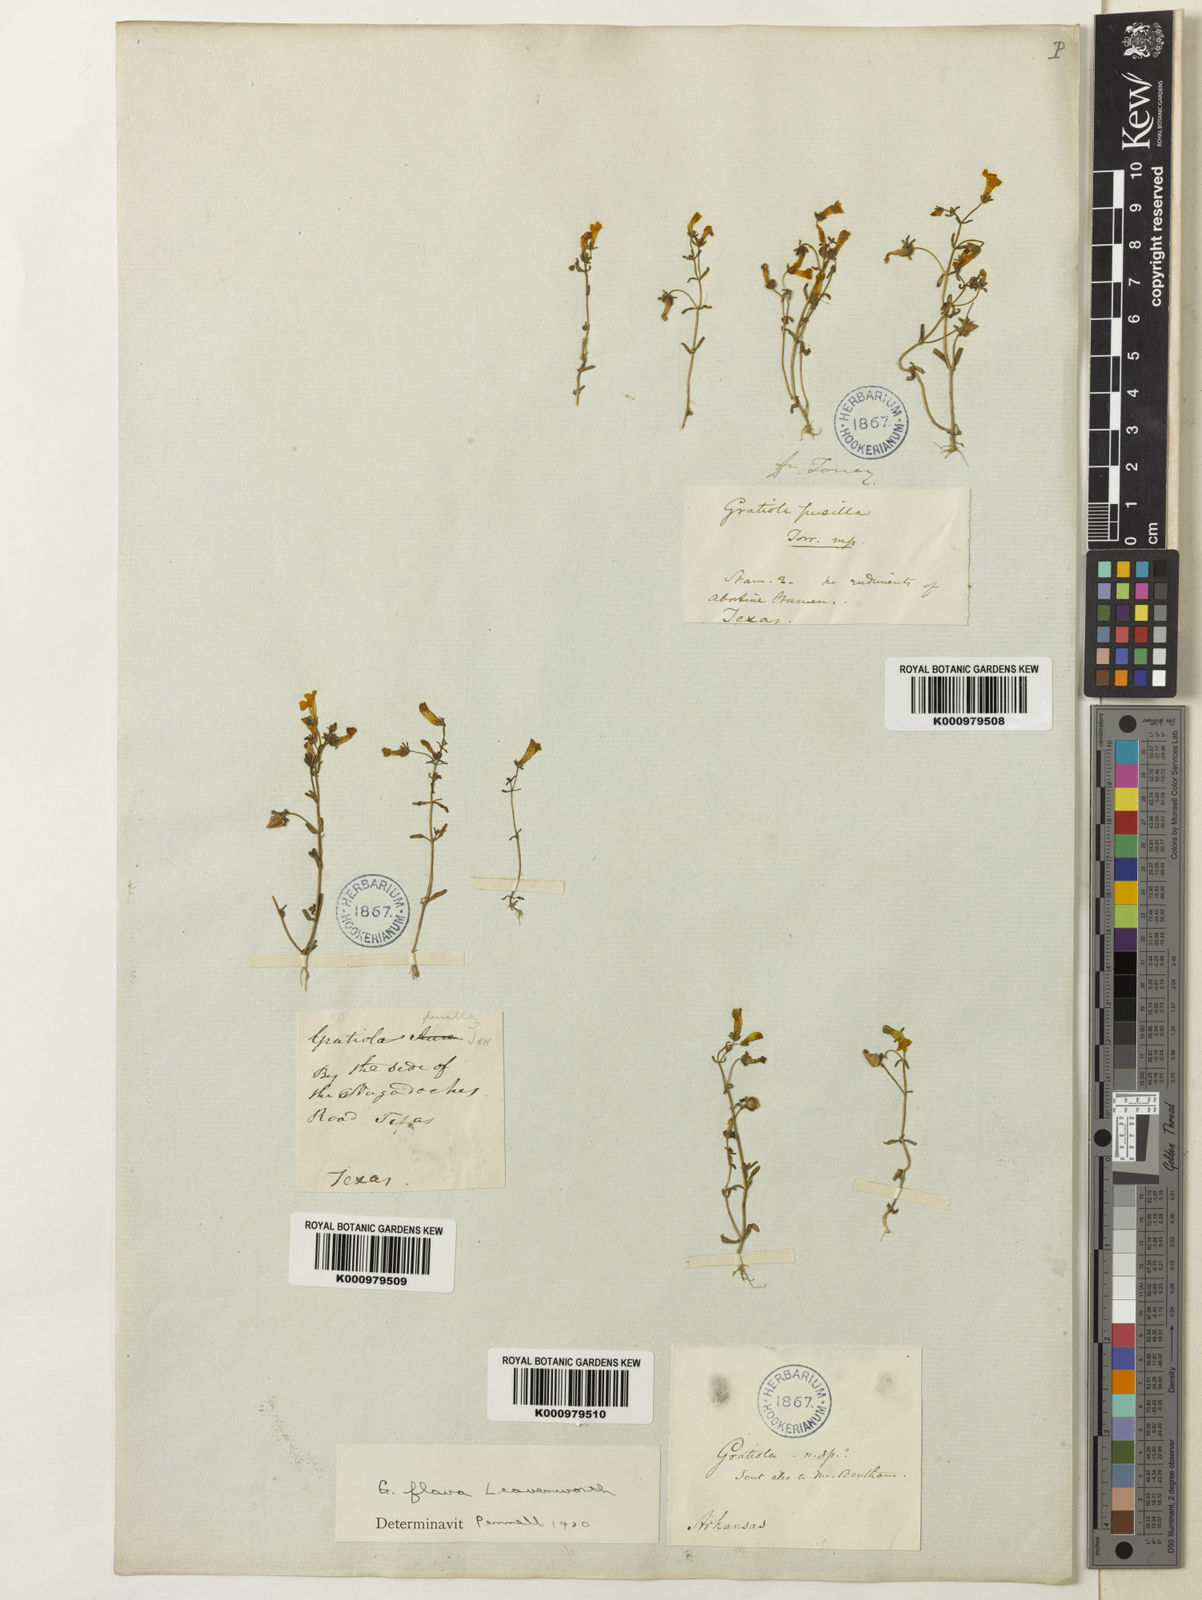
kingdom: Plantae
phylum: Tracheophyta
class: Magnoliopsida
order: Lamiales
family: Plantaginaceae
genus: Gratiola
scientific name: Gratiola torreyi
